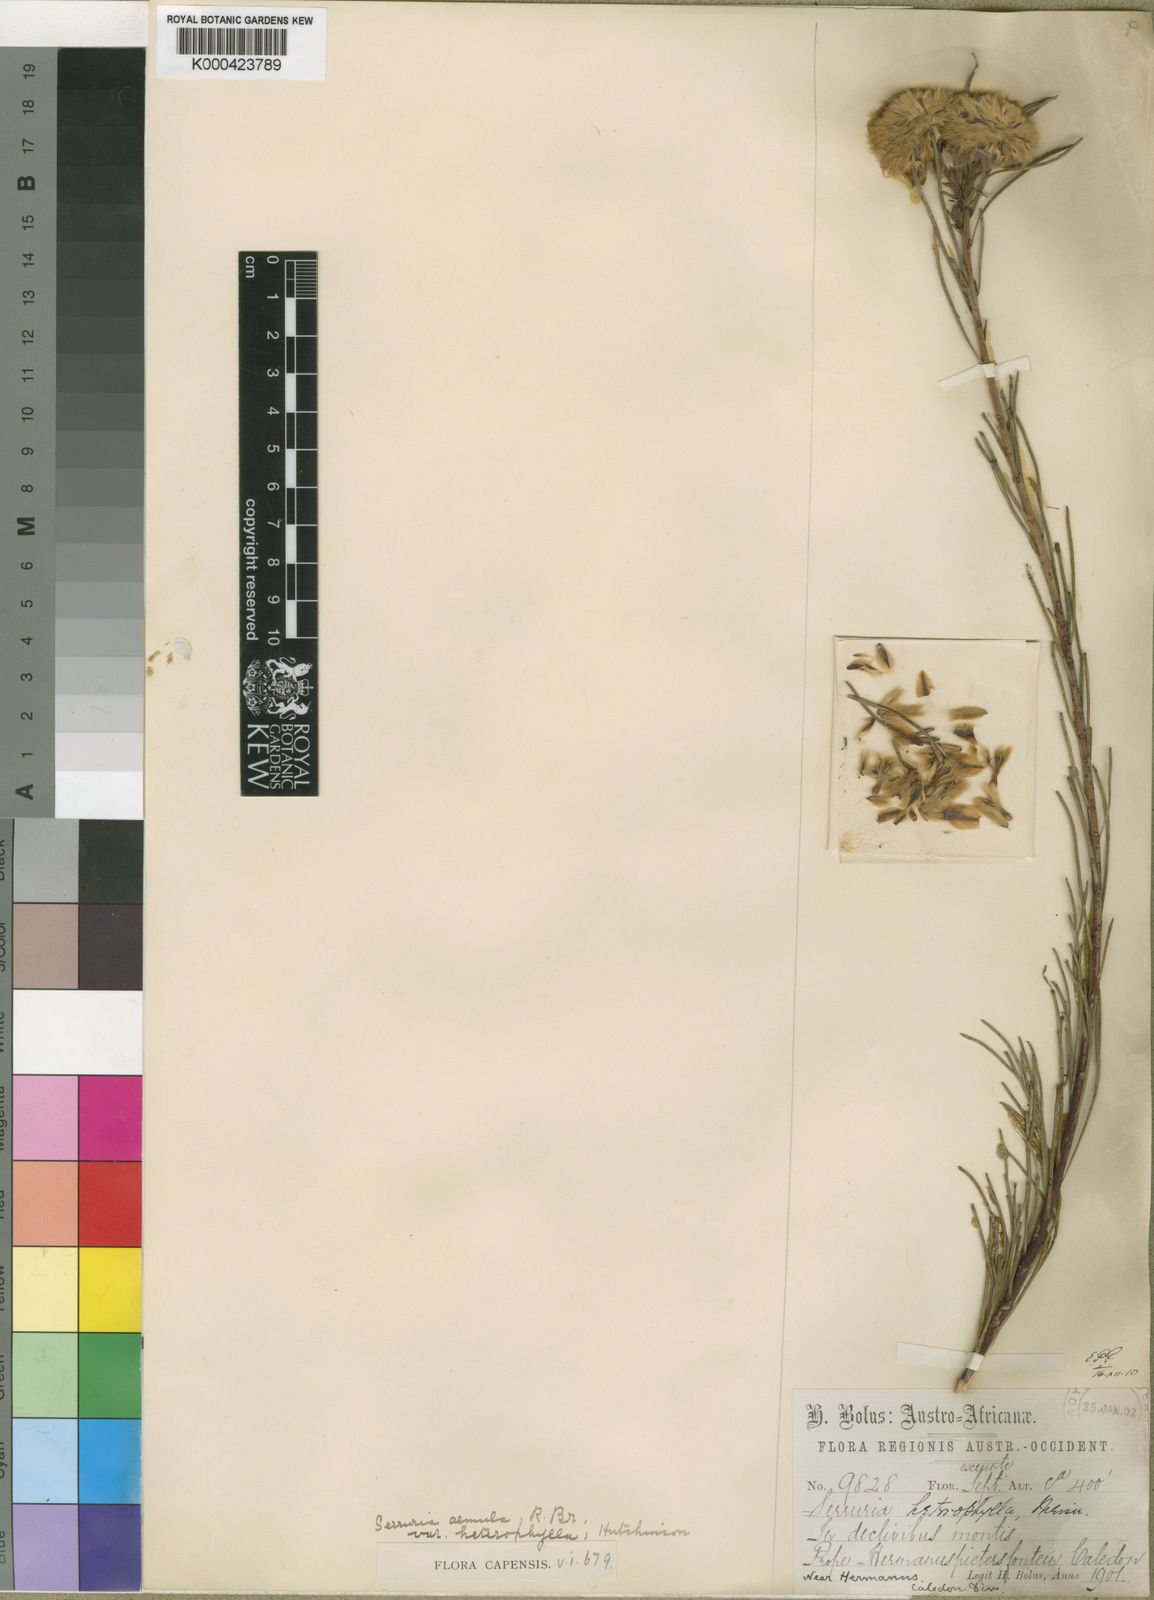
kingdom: Plantae
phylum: Tracheophyta
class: Magnoliopsida
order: Proteales
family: Proteaceae
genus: Serruria
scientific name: Serruria aemula
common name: Strawberry spiderhead
